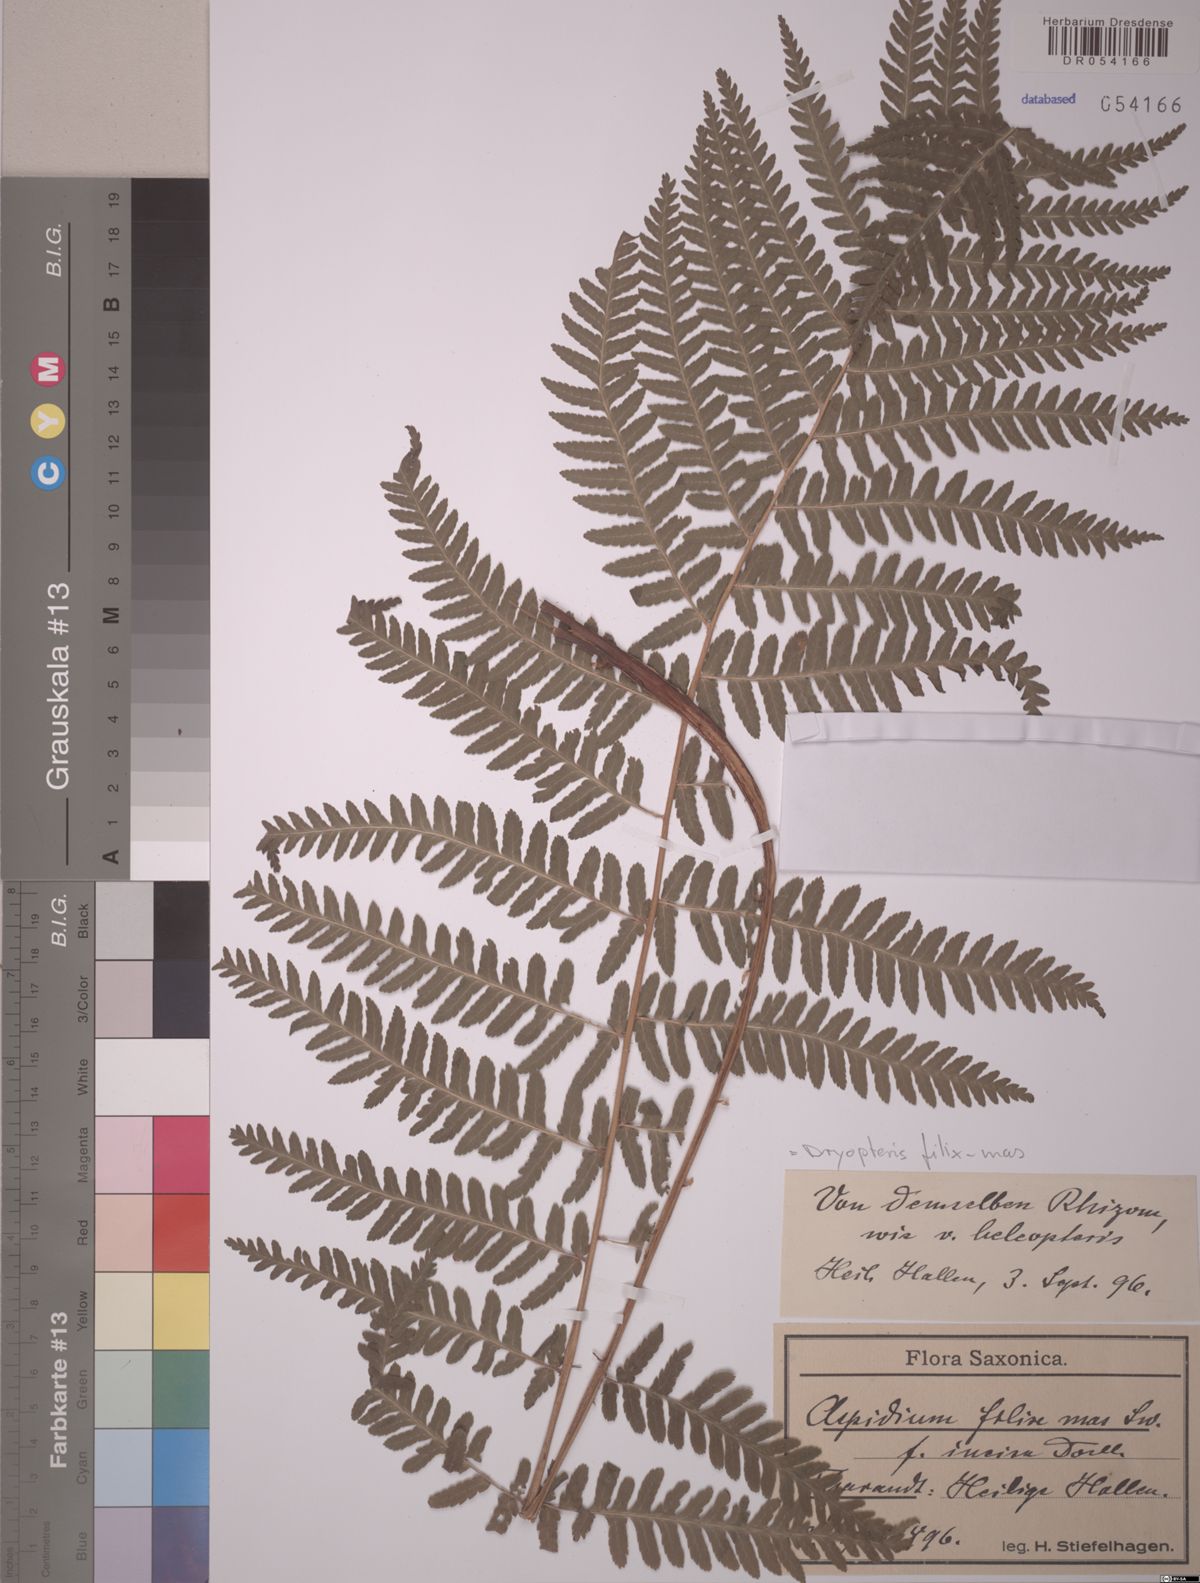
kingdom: Plantae
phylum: Tracheophyta
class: Polypodiopsida
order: Polypodiales
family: Dryopteridaceae
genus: Dryopteris
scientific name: Dryopteris filix-mas
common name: Male fern
